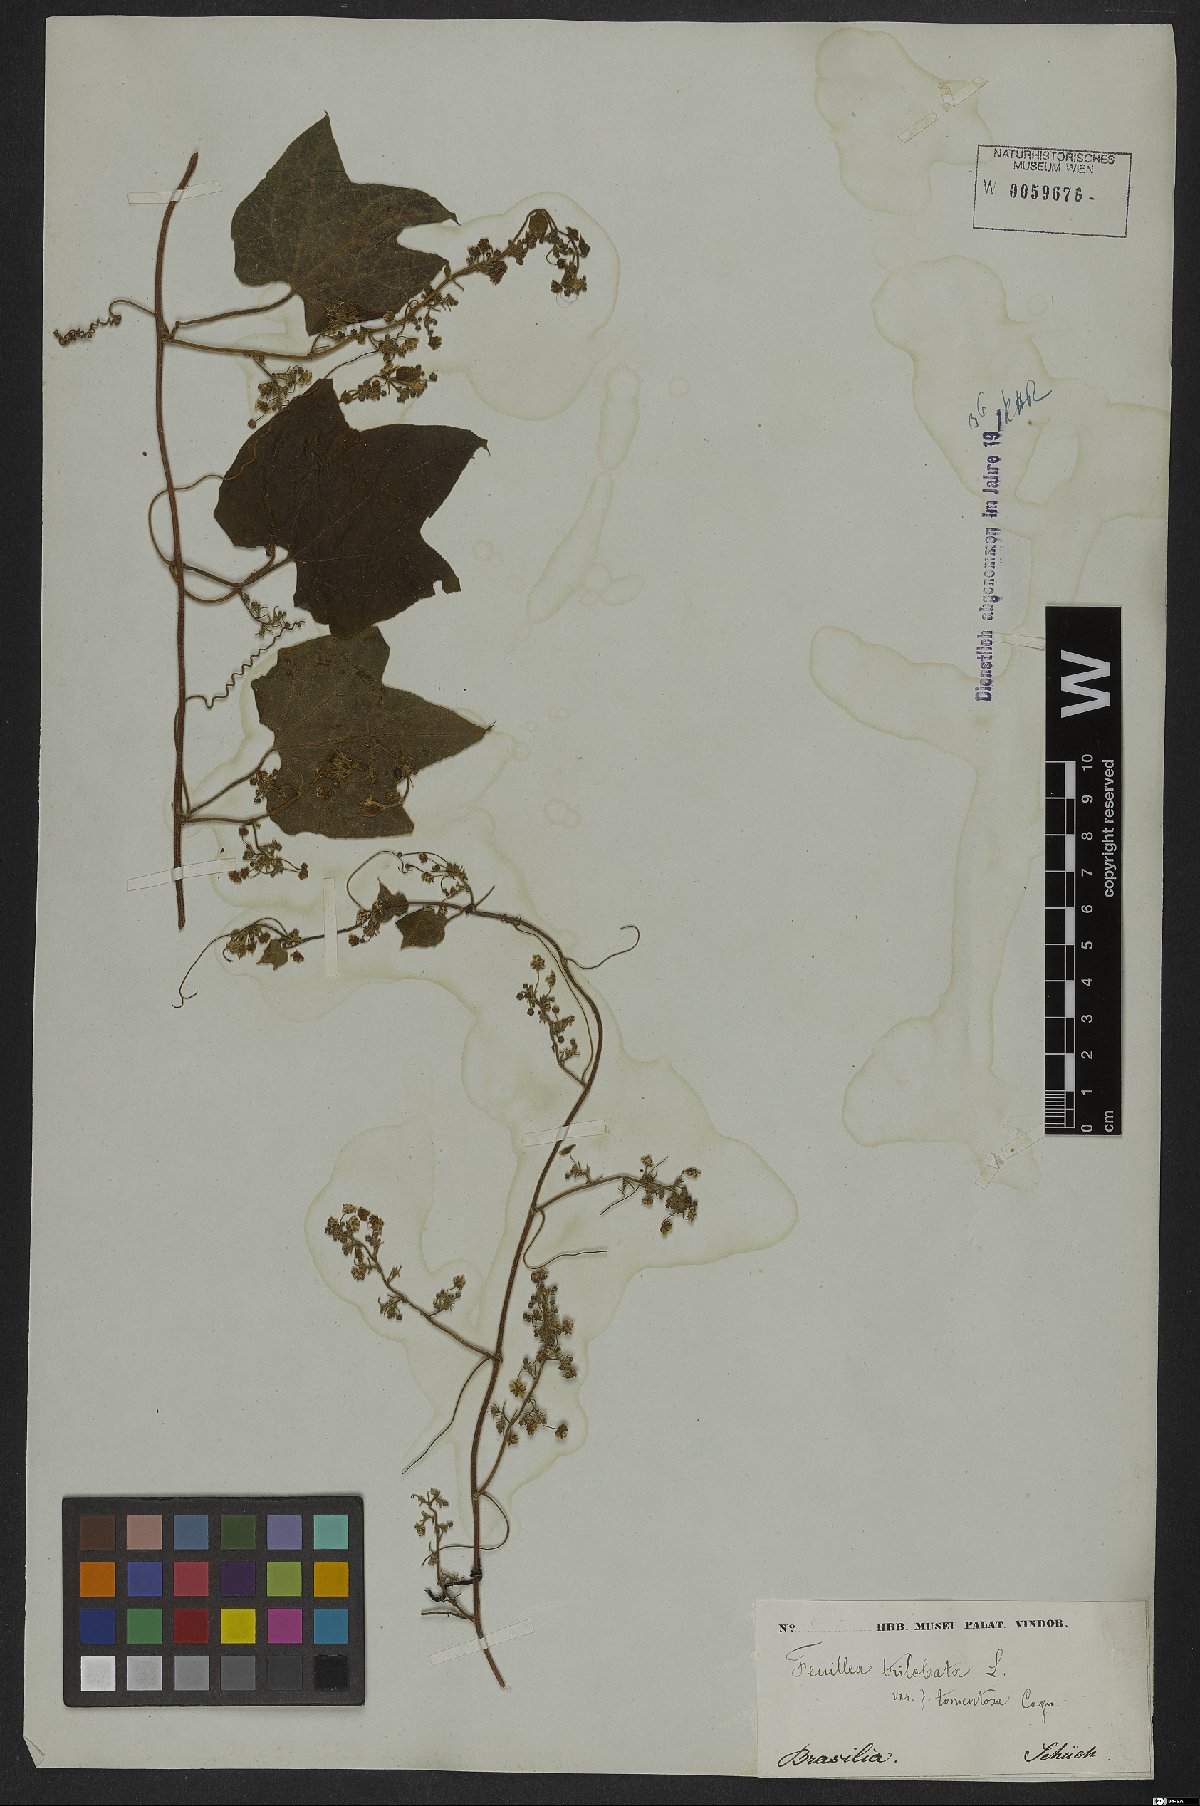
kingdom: Plantae
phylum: Tracheophyta
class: Magnoliopsida
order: Cucurbitales
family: Cucurbitaceae
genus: Fevillea
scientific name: Fevillea trilobata
